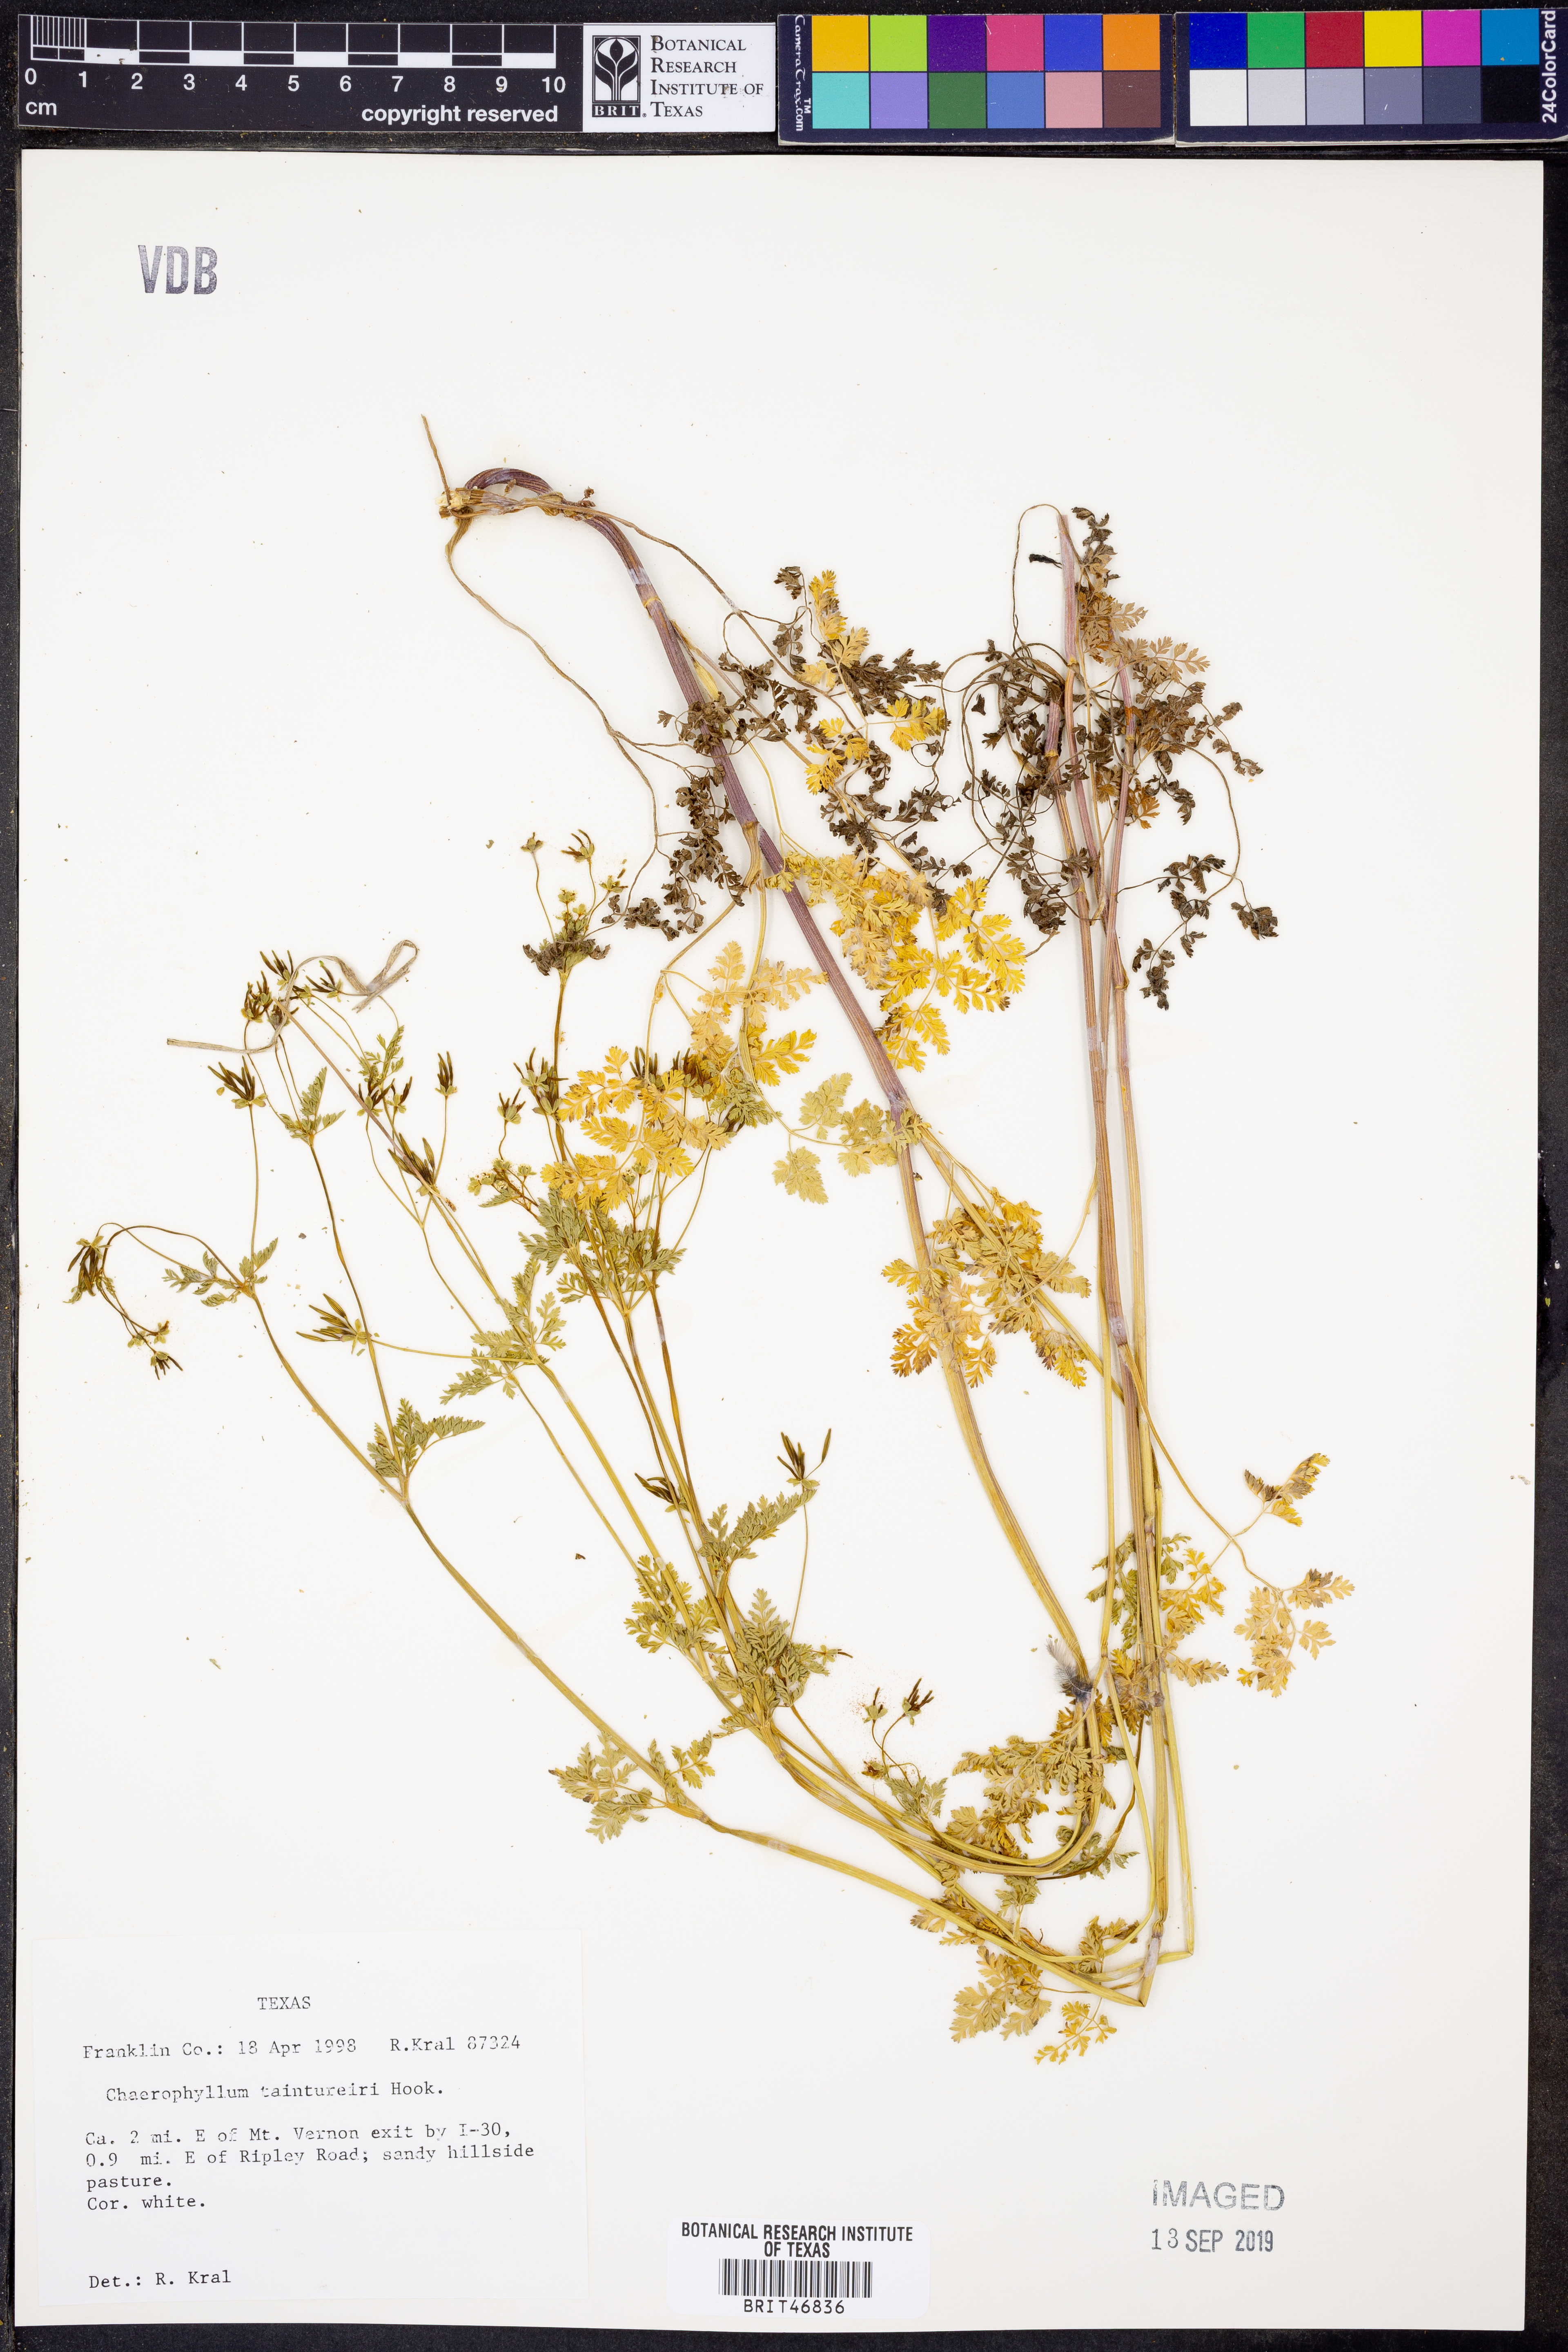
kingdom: Plantae
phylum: Tracheophyta
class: Magnoliopsida
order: Apiales
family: Apiaceae
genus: Chaerophyllum
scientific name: Chaerophyllum tainturieri
